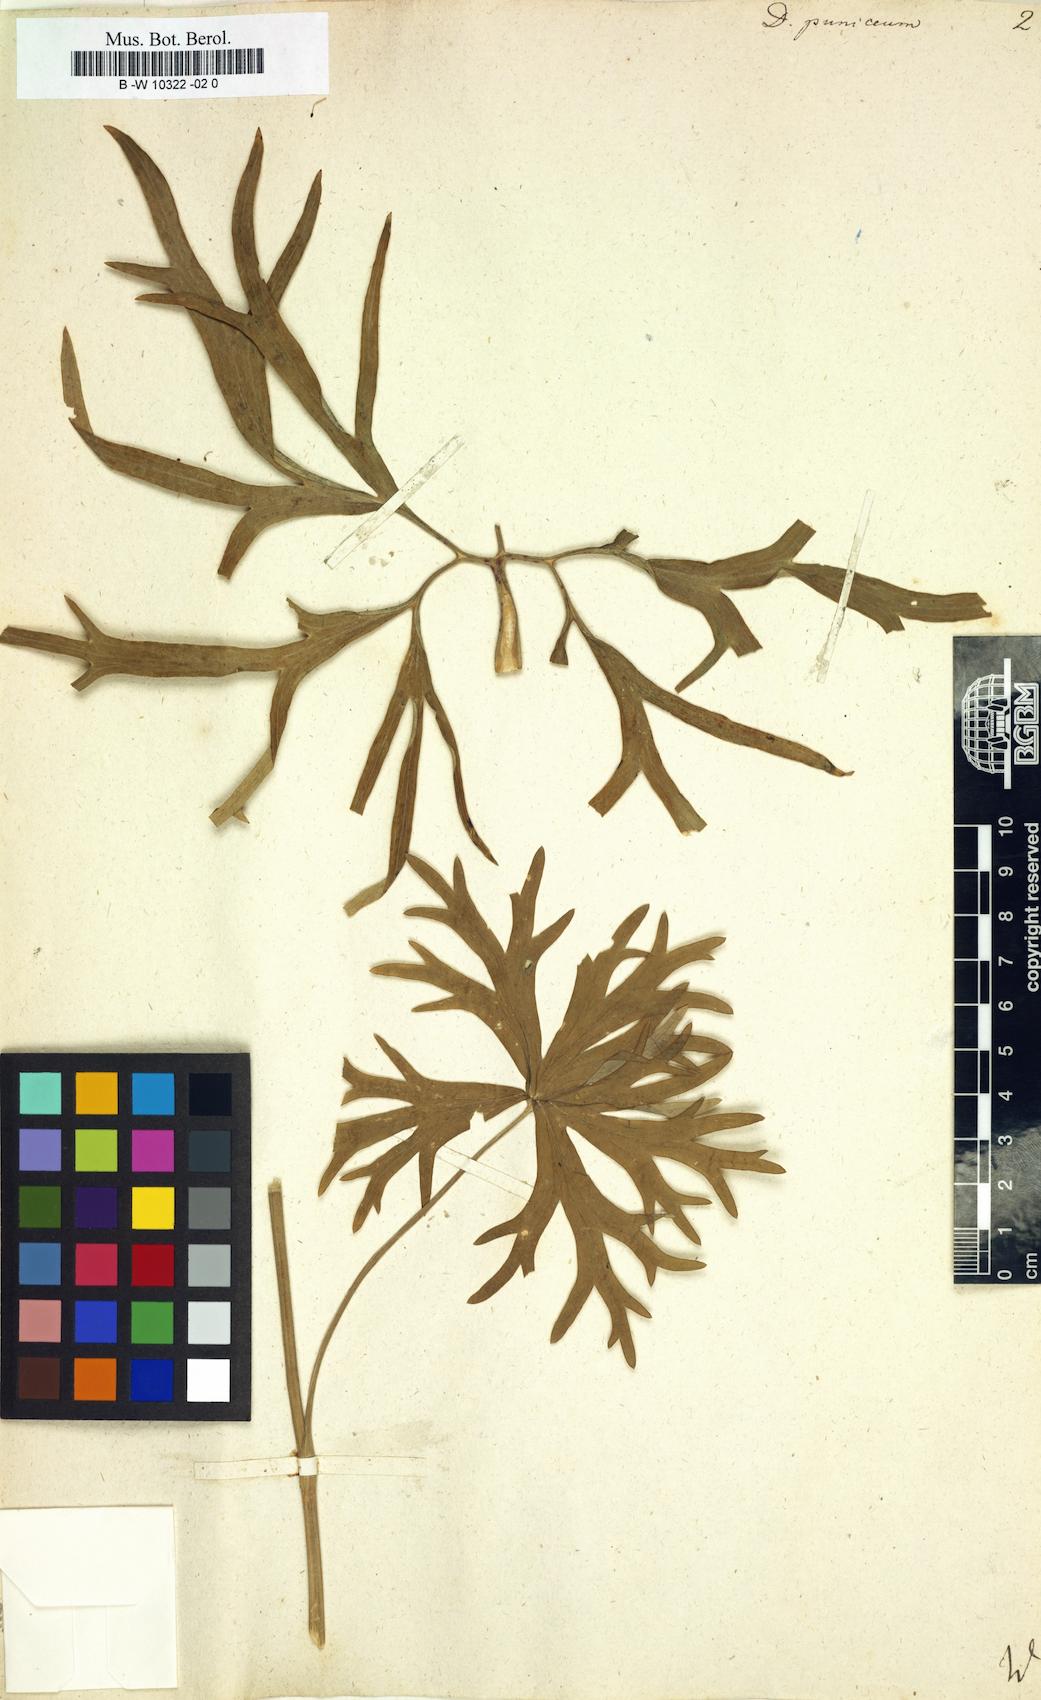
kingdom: Plantae
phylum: Tracheophyta
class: Magnoliopsida
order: Ranunculales
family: Ranunculaceae
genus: Delphinium
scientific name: Delphinium puniceum
